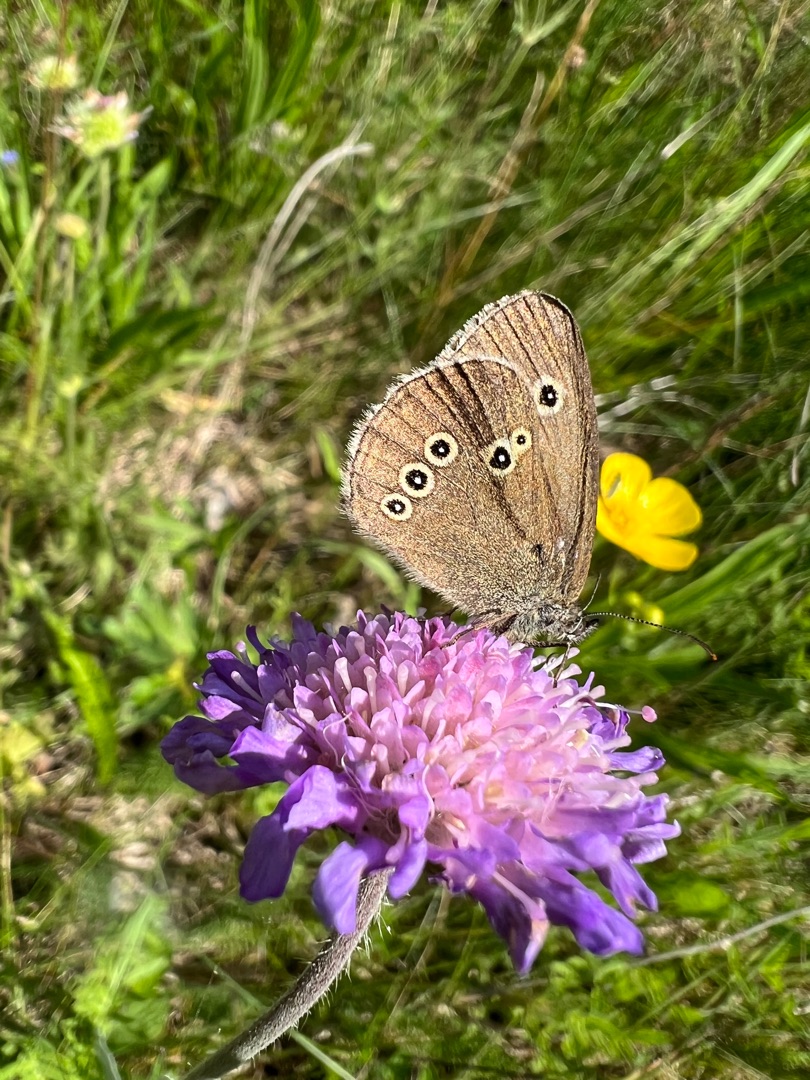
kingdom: Animalia
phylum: Arthropoda
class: Insecta
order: Lepidoptera
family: Nymphalidae
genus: Aphantopus
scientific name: Aphantopus hyperantus
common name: Engrandøje
